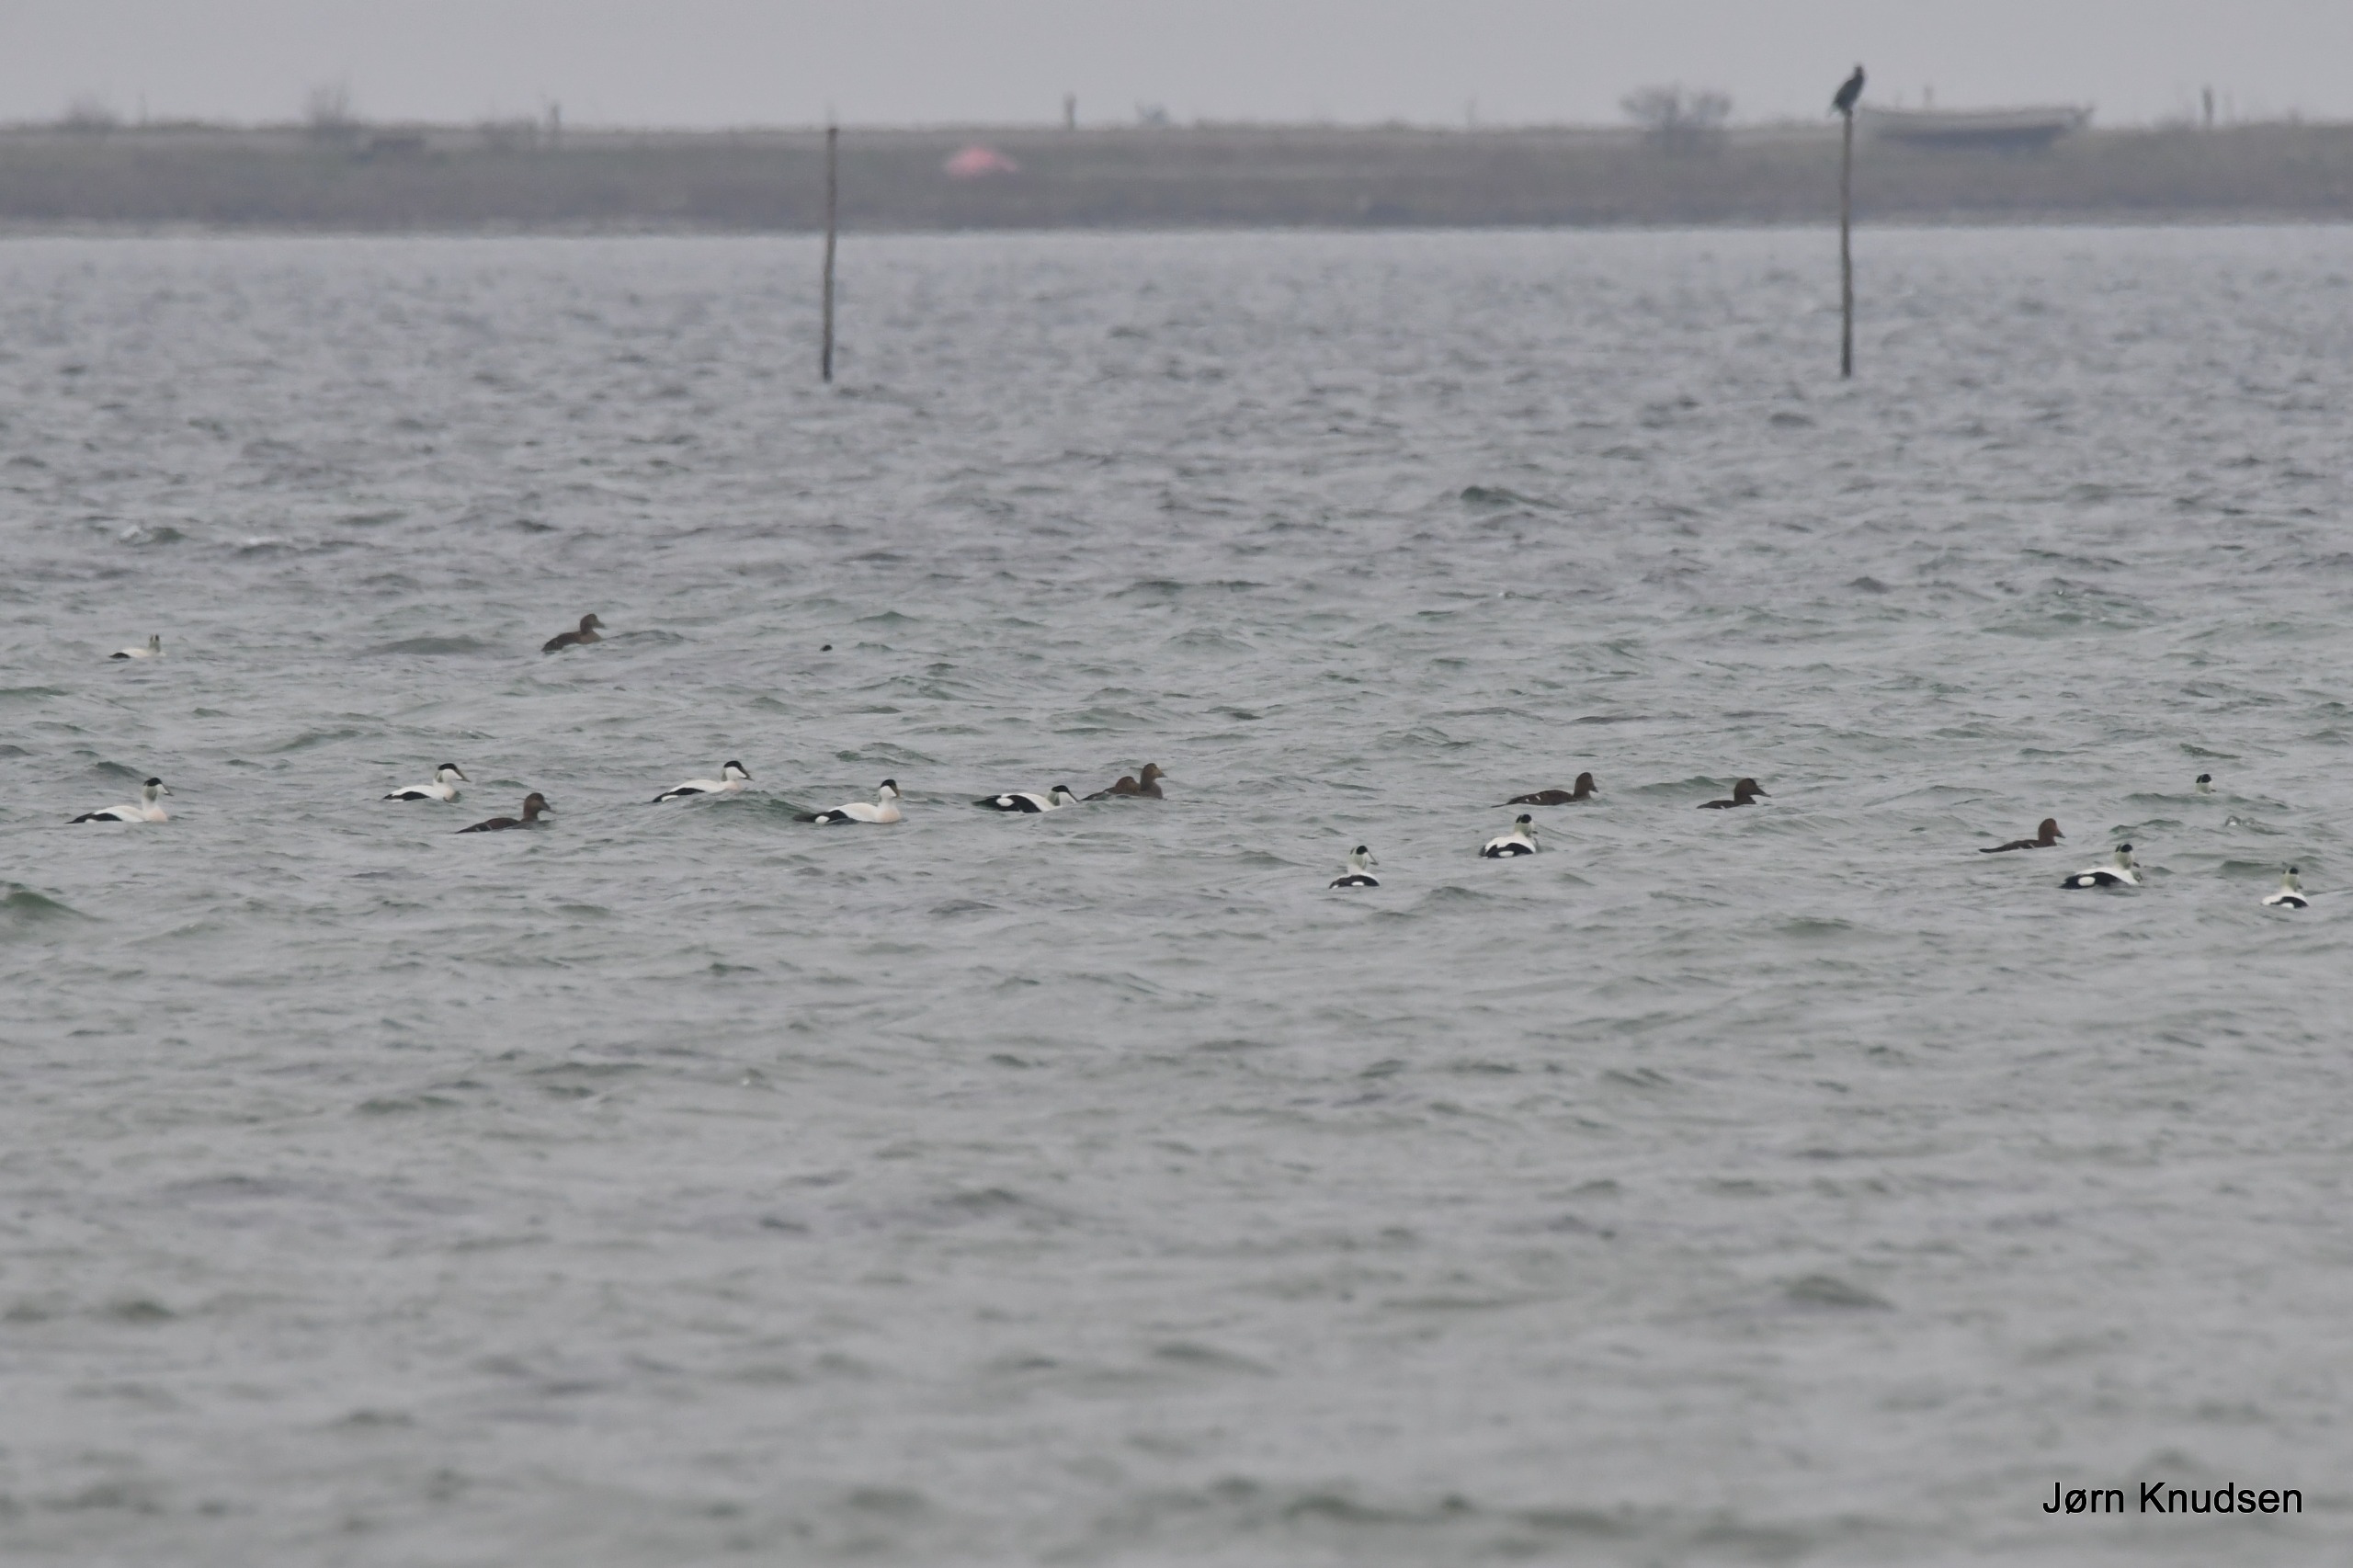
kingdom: Animalia
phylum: Chordata
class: Aves
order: Anseriformes
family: Anatidae
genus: Somateria
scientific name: Somateria mollissima
